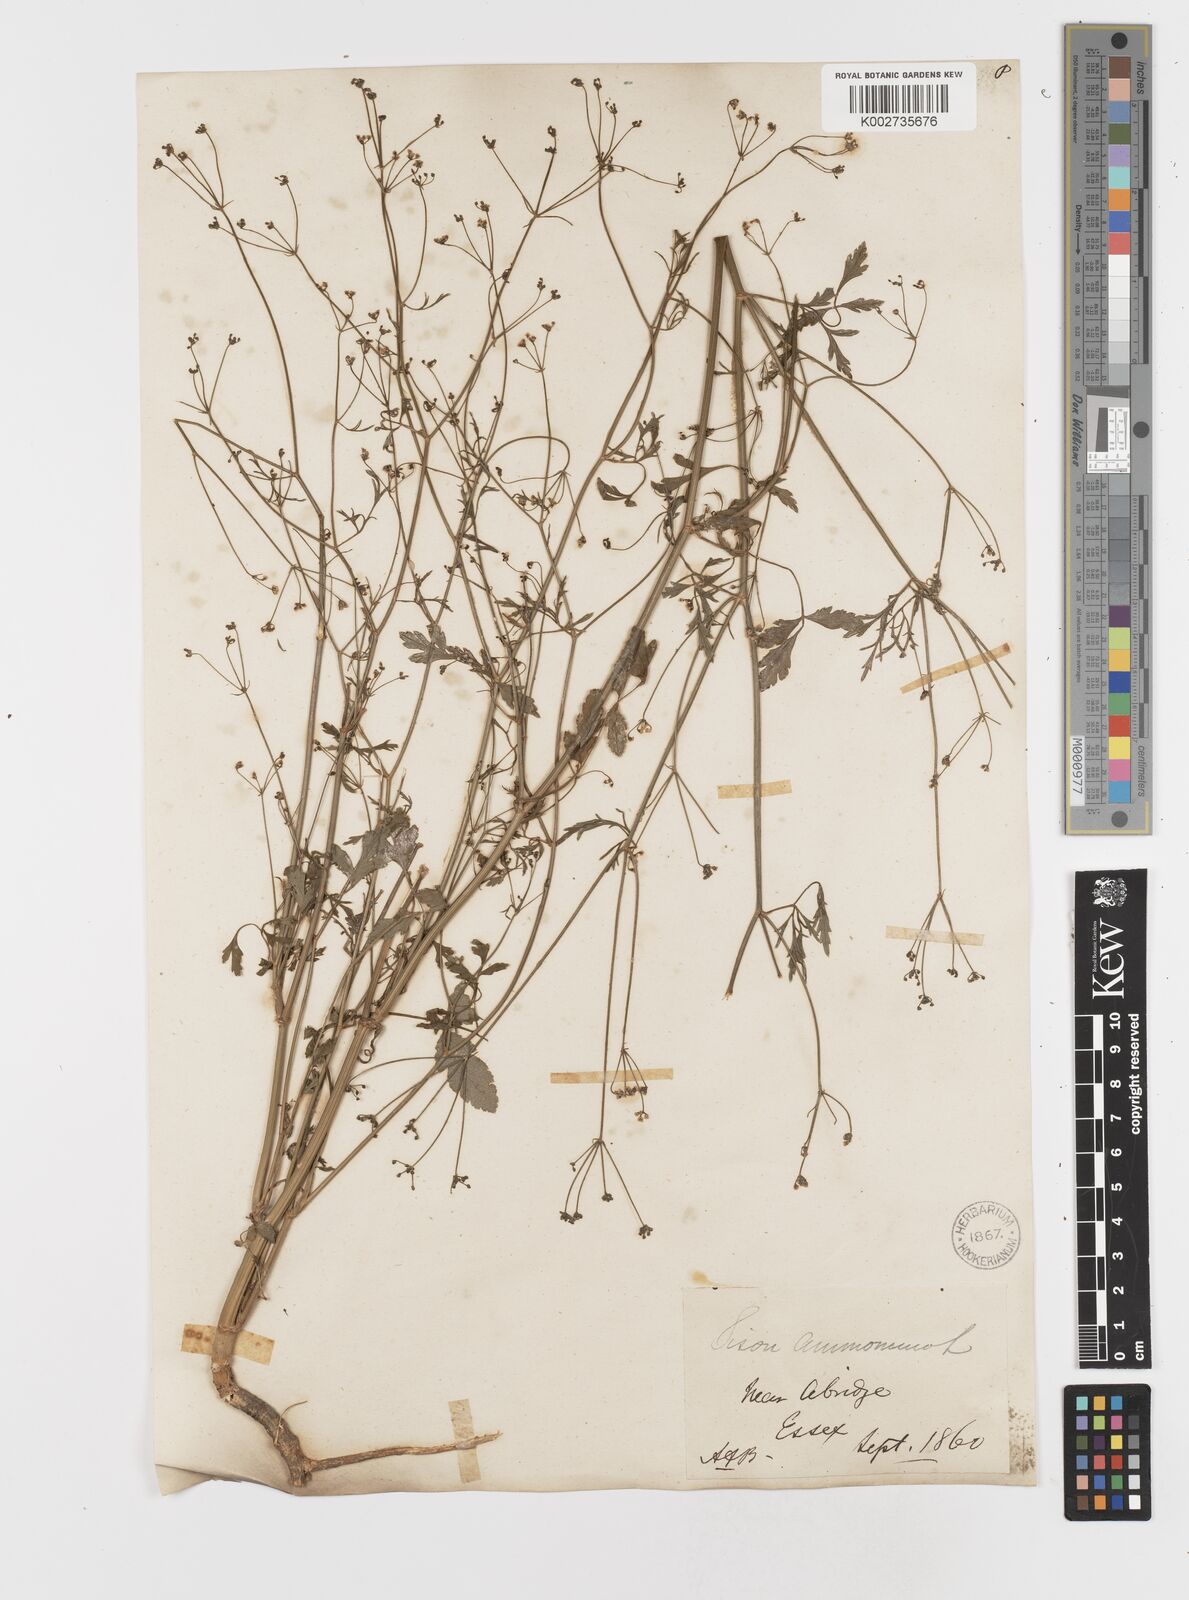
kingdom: Plantae
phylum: Tracheophyta
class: Magnoliopsida
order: Apiales
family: Apiaceae
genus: Sison
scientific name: Sison amomum
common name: Stone-parsley
